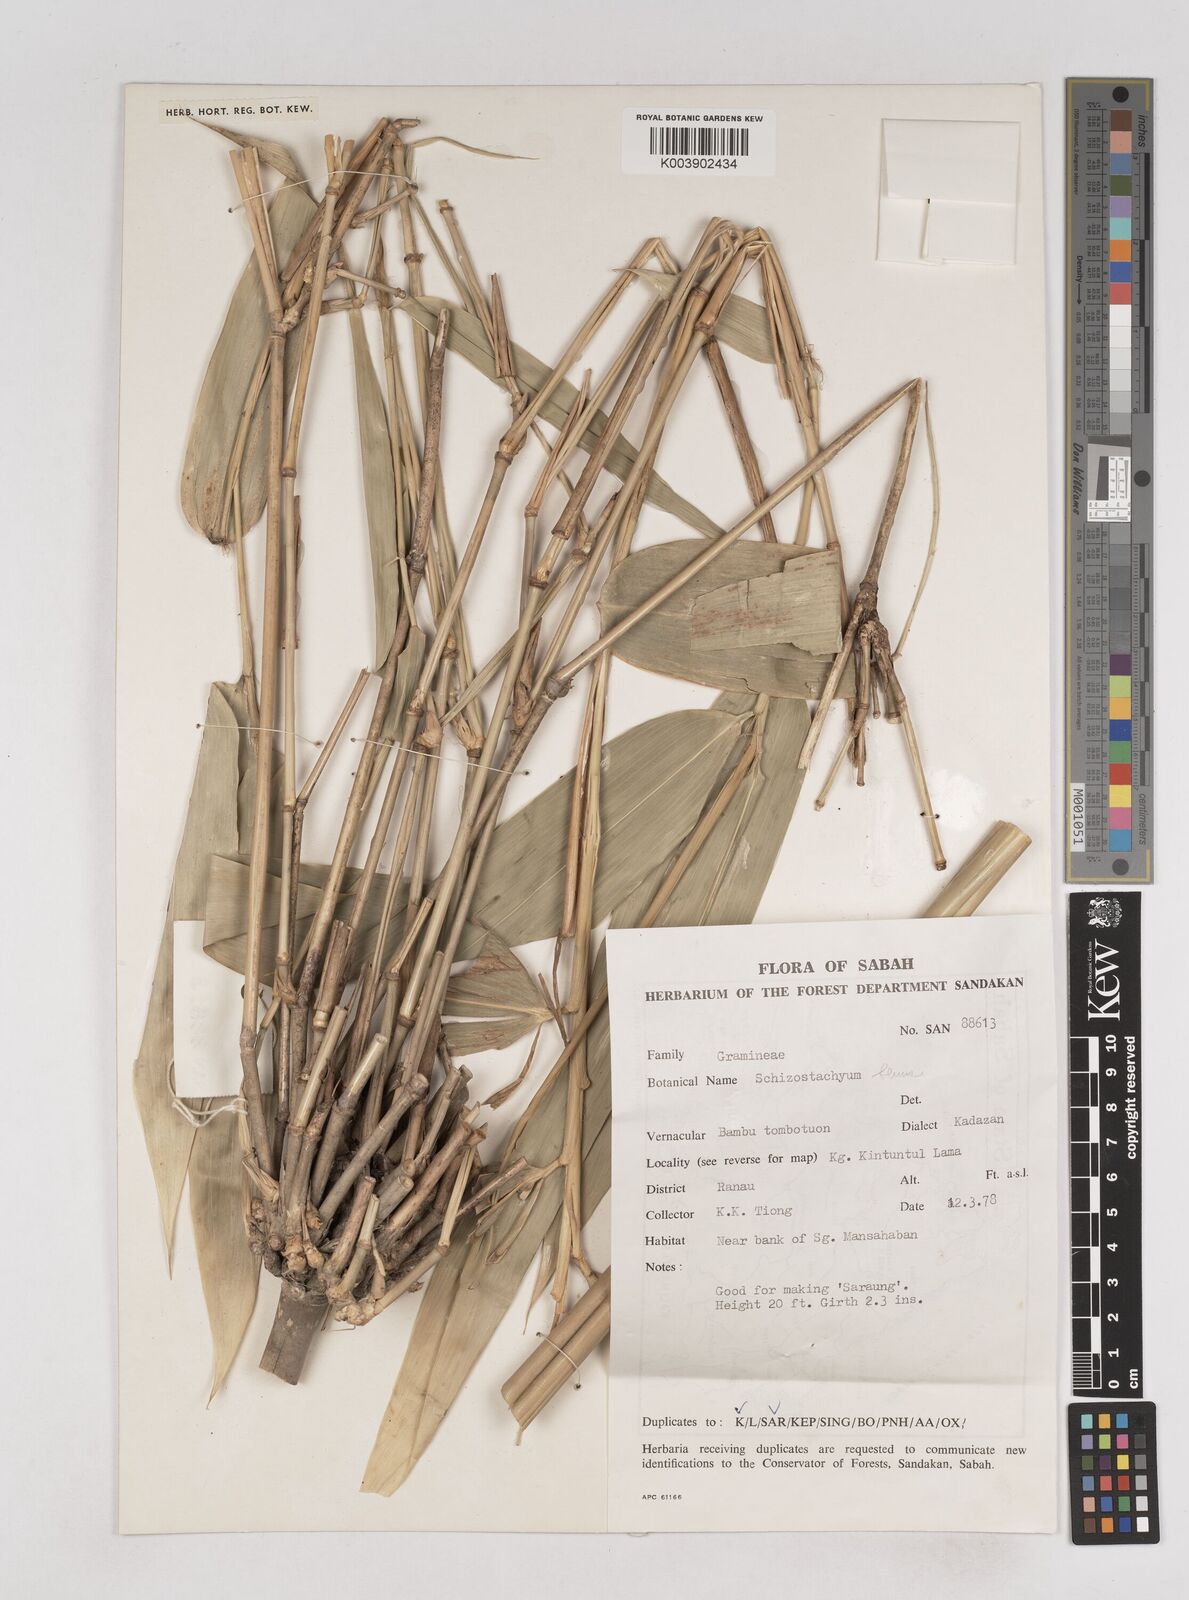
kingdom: Plantae
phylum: Tracheophyta
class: Liliopsida
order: Poales
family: Poaceae
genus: Schizostachyum
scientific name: Schizostachyum
